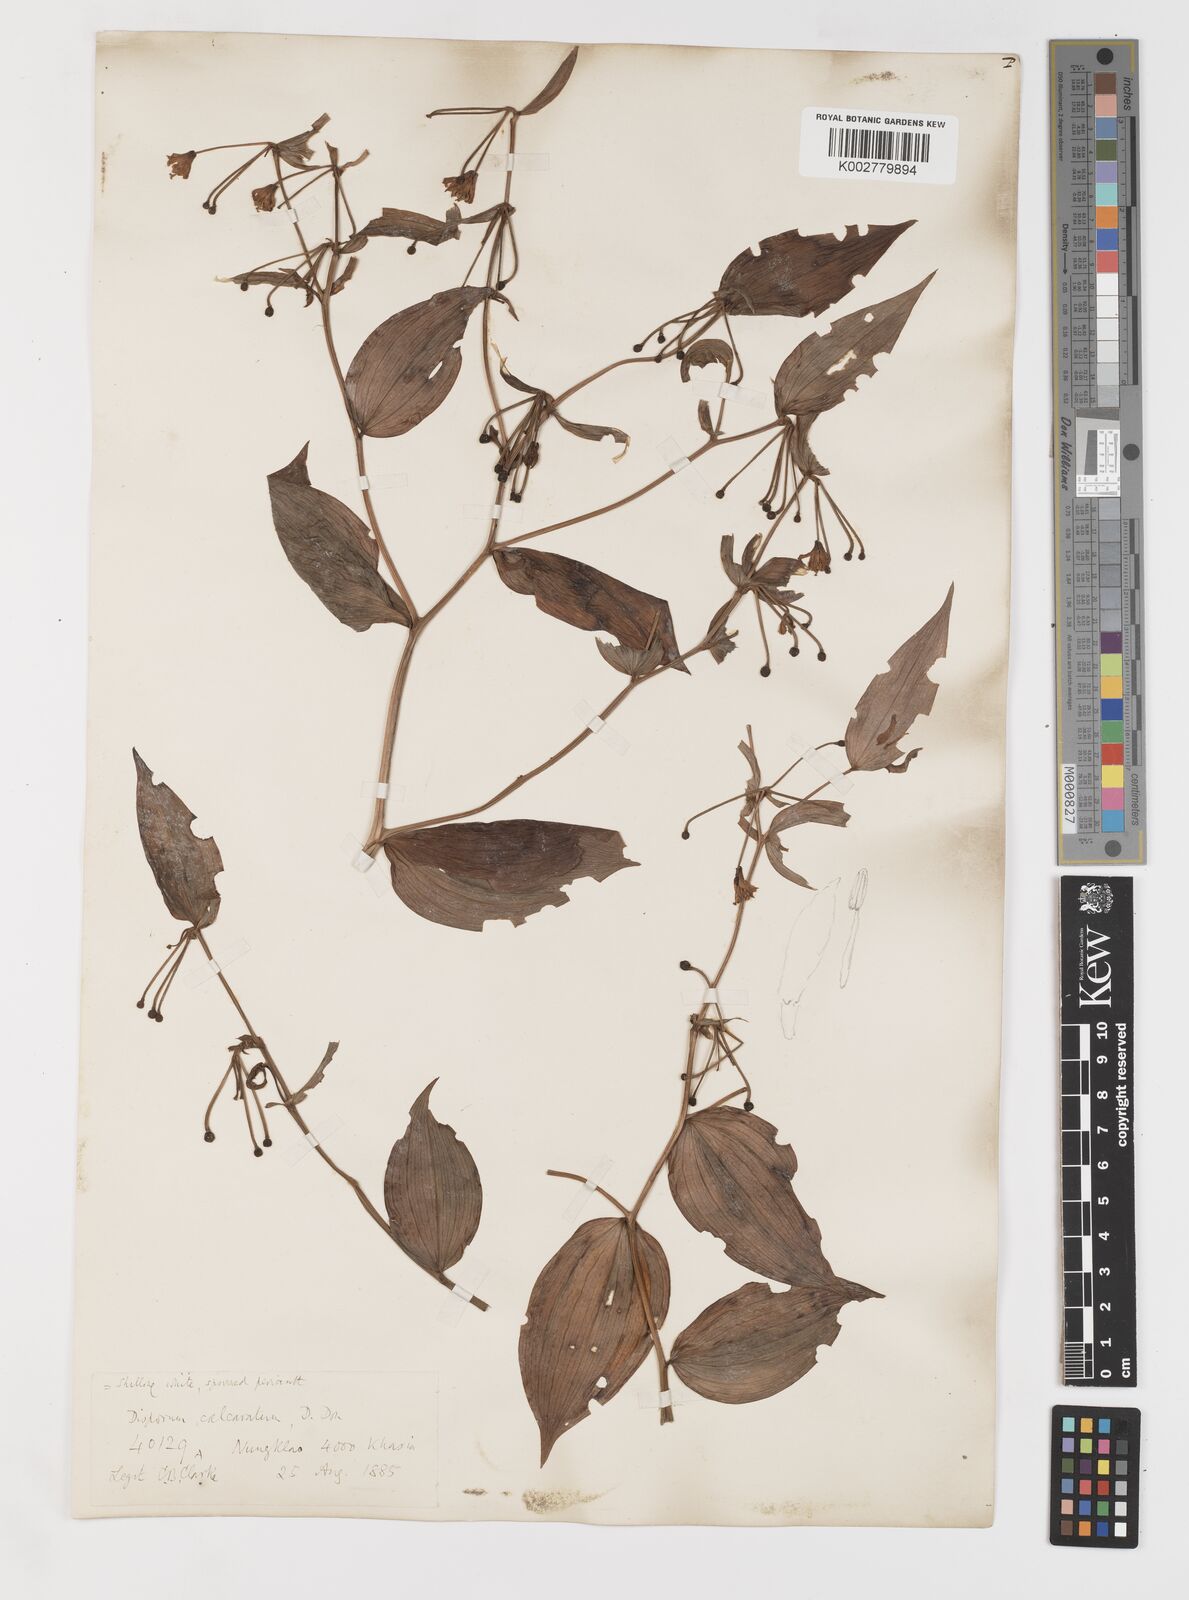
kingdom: Plantae
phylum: Tracheophyta
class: Liliopsida
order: Liliales
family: Colchicaceae
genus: Disporum
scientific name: Disporum
